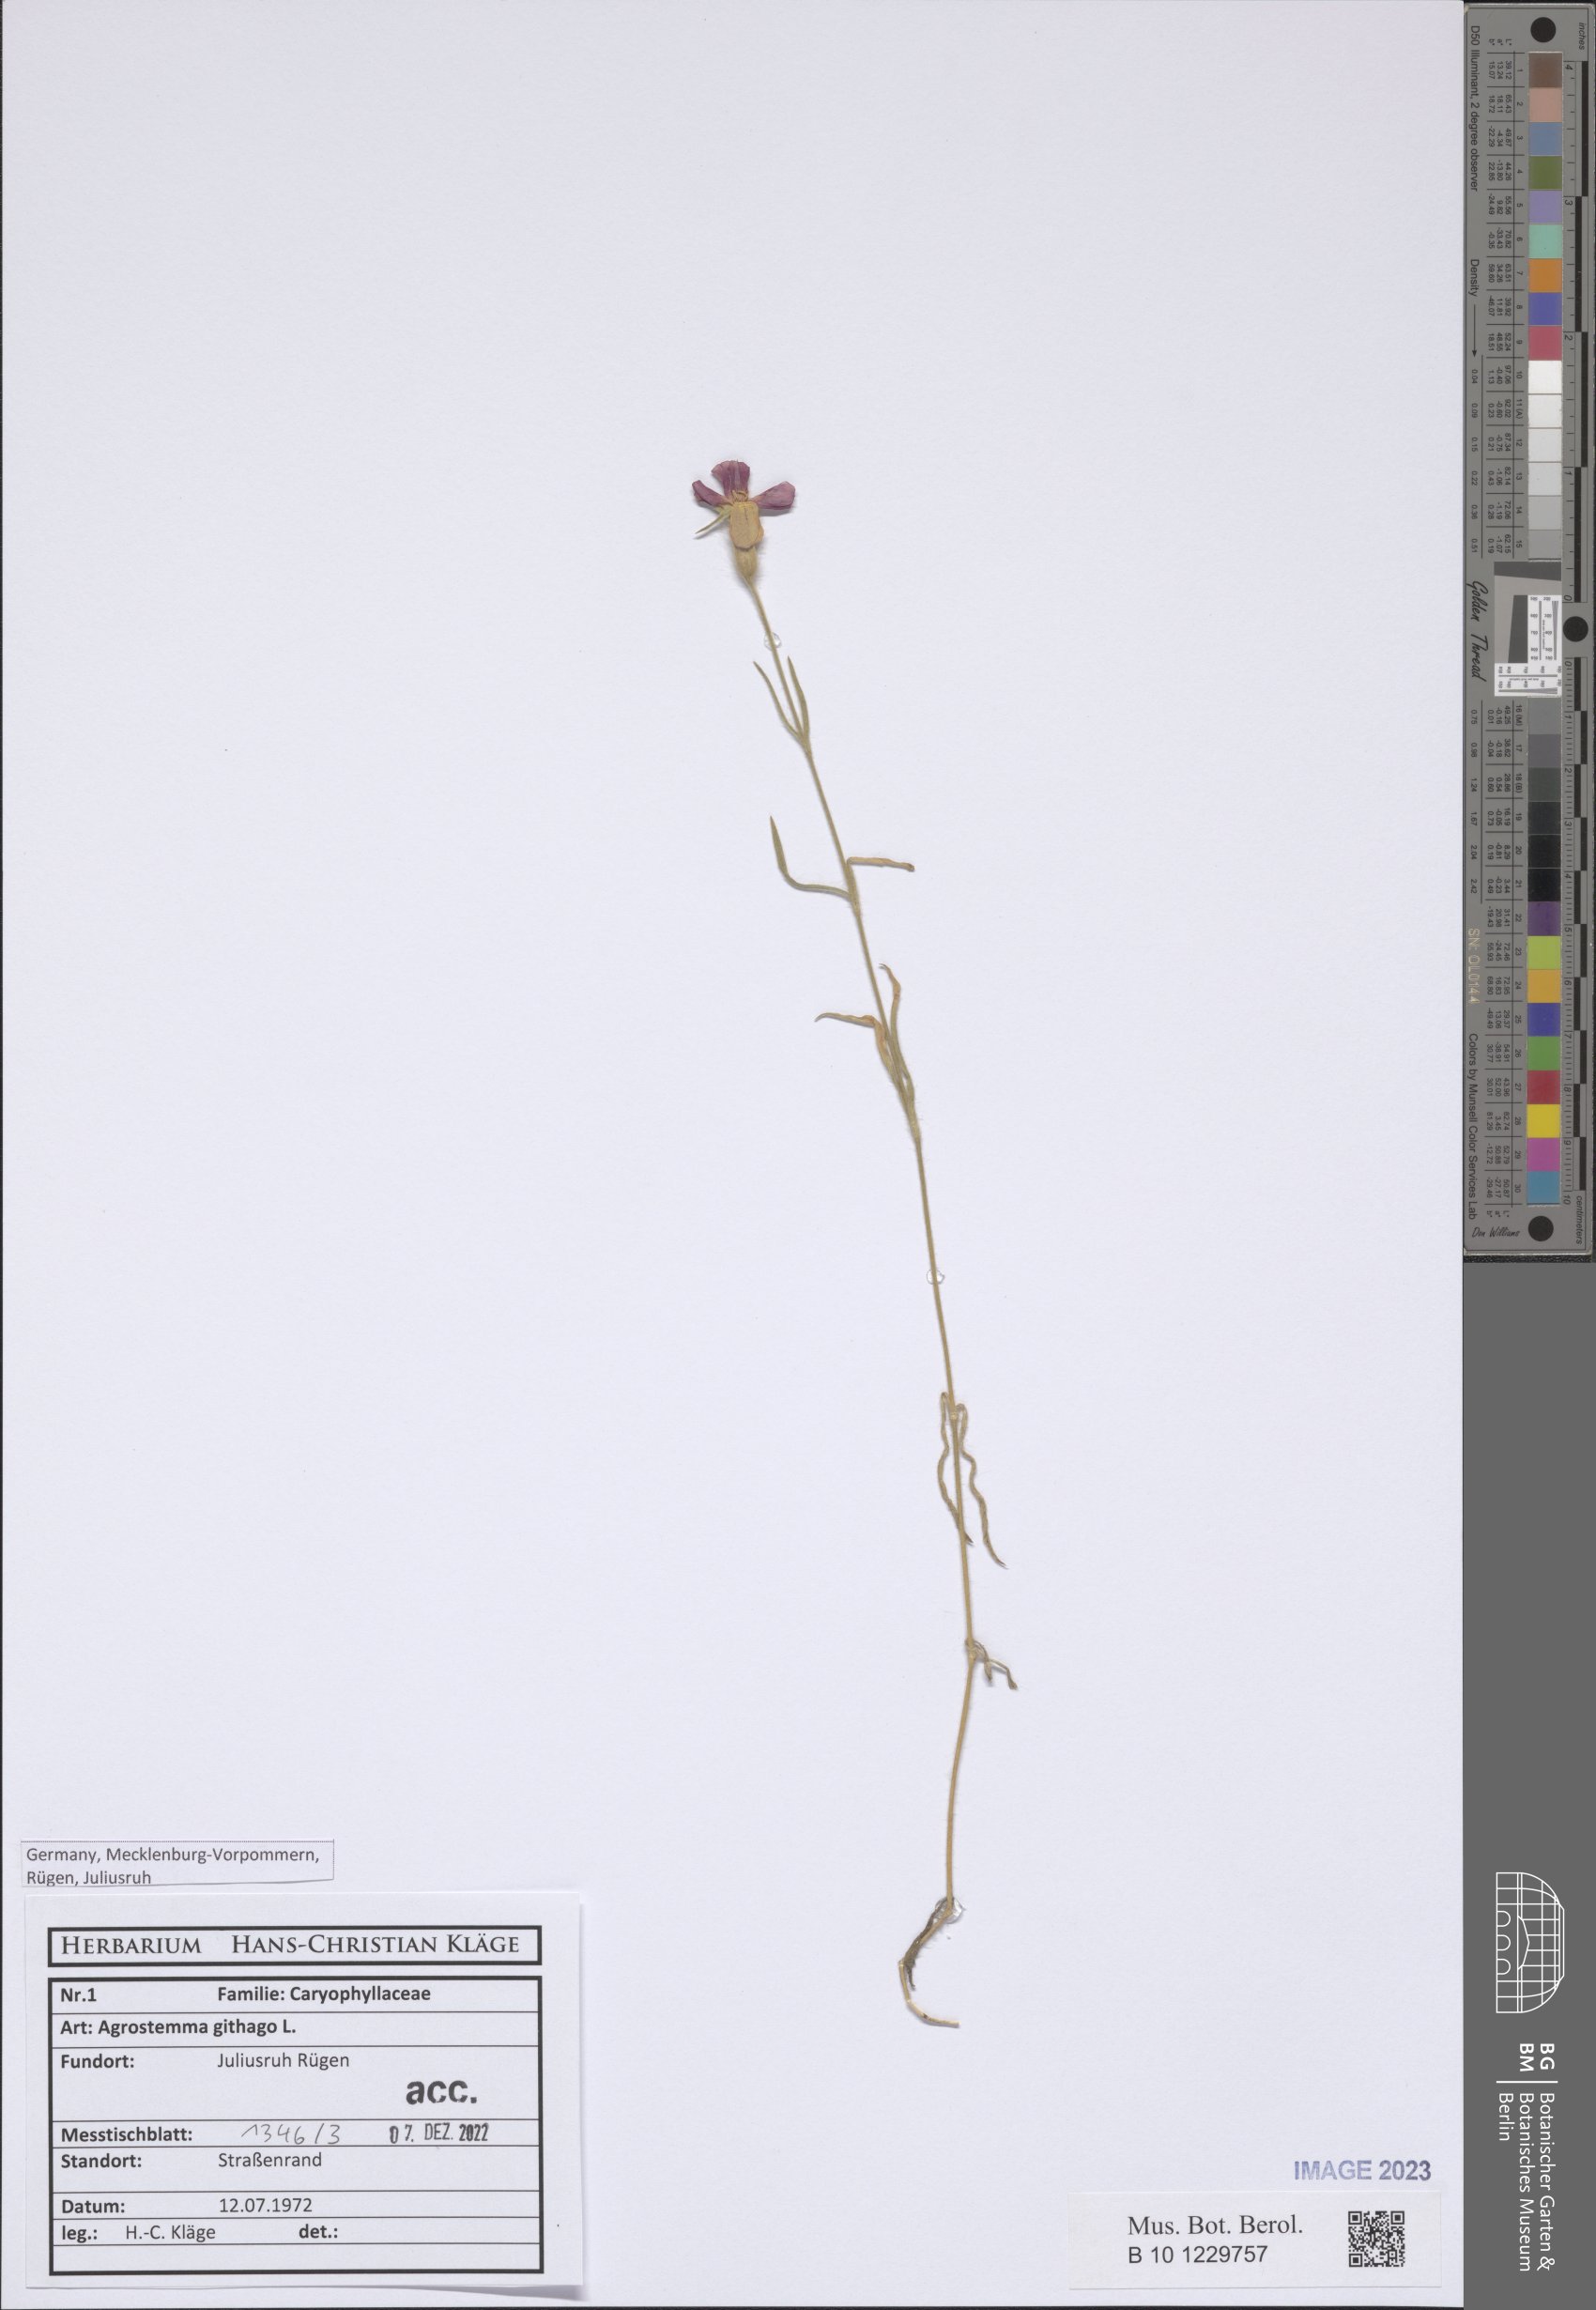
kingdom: Plantae
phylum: Tracheophyta
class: Magnoliopsida
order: Caryophyllales
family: Caryophyllaceae
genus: Agrostemma
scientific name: Agrostemma githago
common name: Common corncockle
